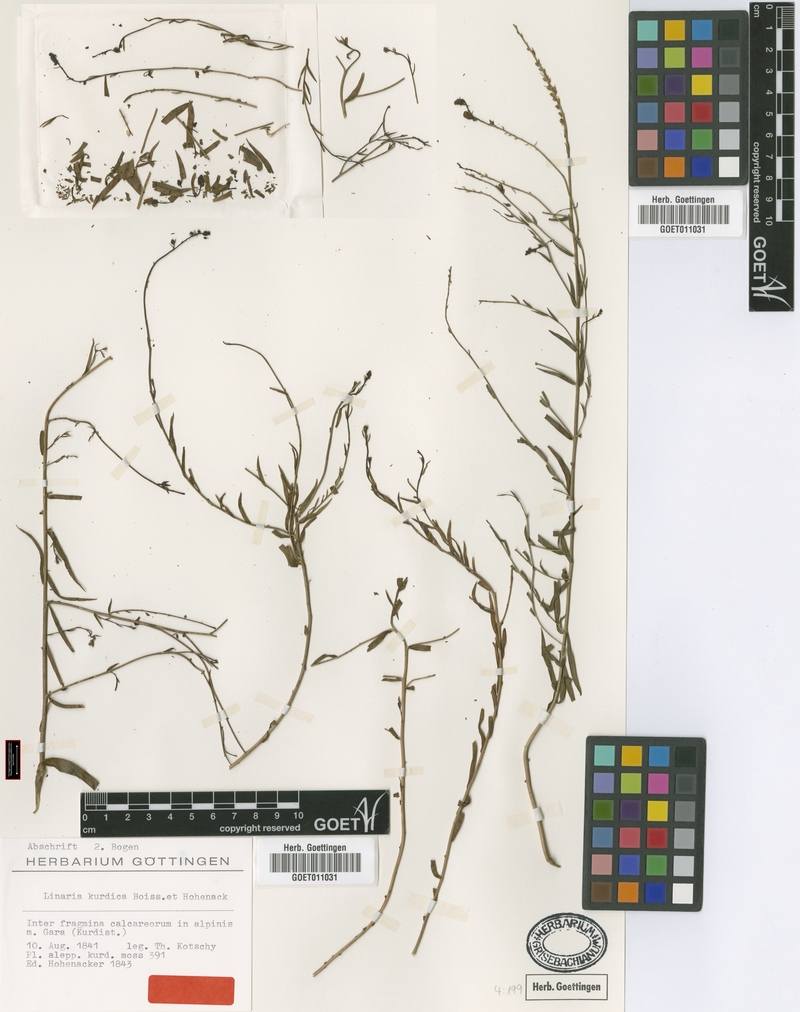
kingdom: Plantae
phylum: Tracheophyta
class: Magnoliopsida
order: Lamiales
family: Plantaginaceae
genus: Linaria
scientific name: Linaria kurdica
